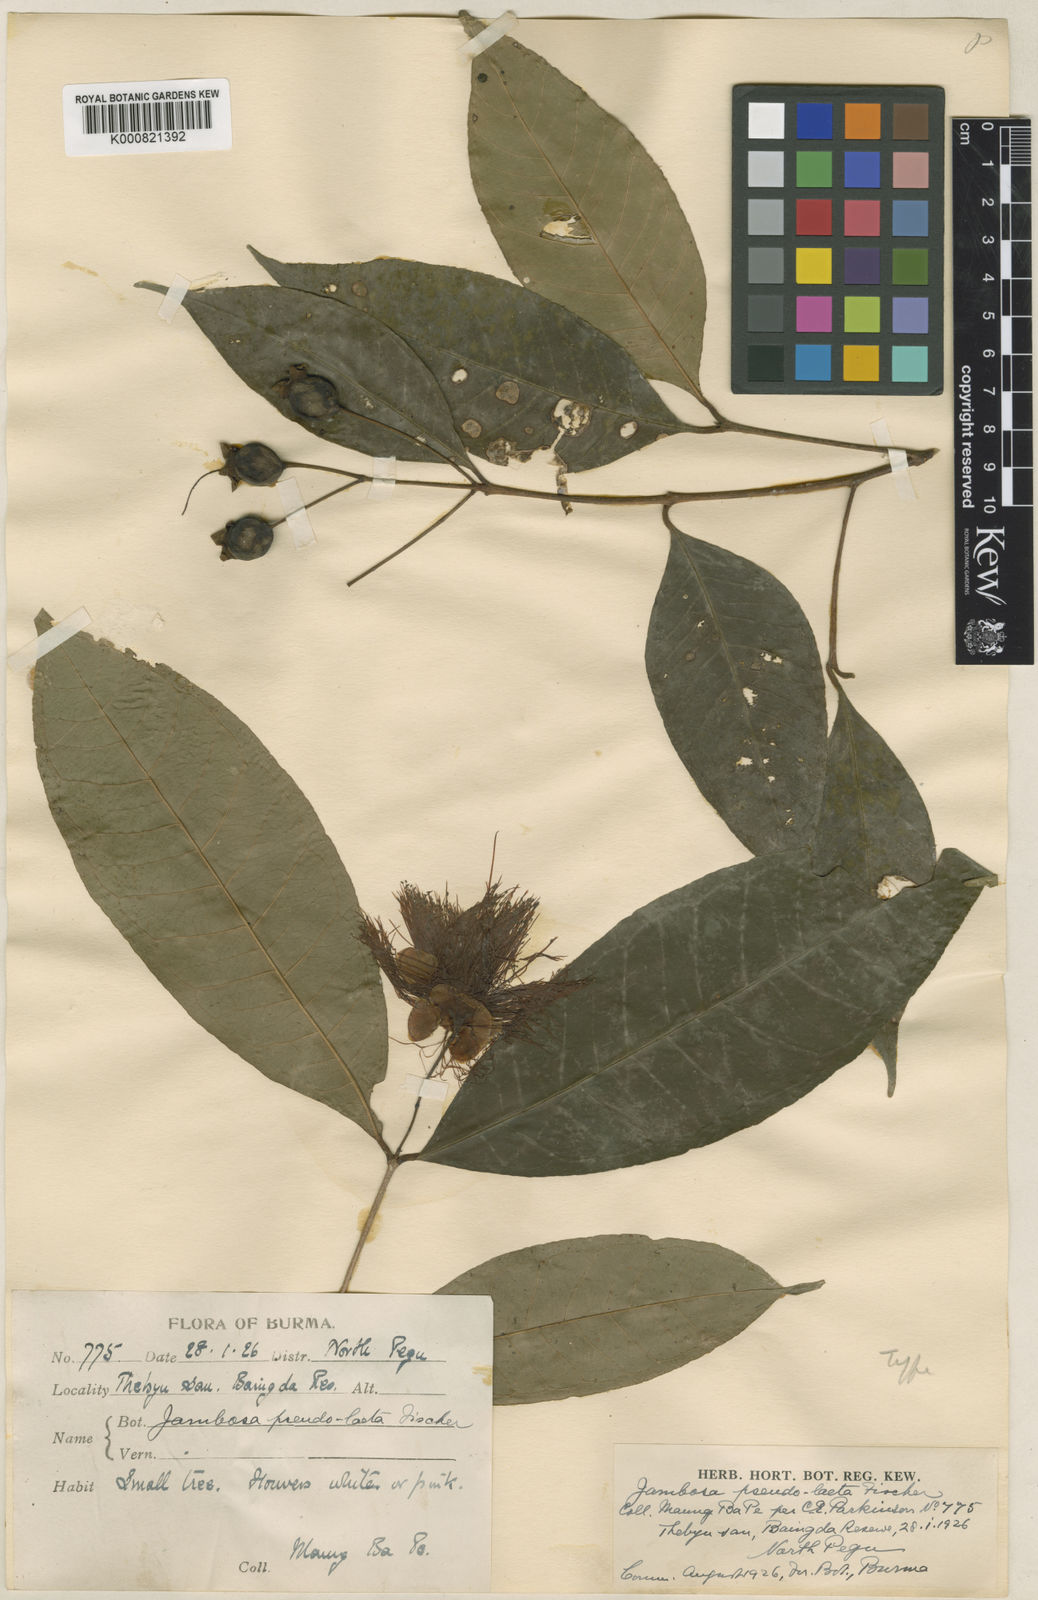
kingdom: Plantae
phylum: Tracheophyta
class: Magnoliopsida
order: Myrtales
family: Myrtaceae
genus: Syzygium
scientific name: Syzygium pseudolaetum
